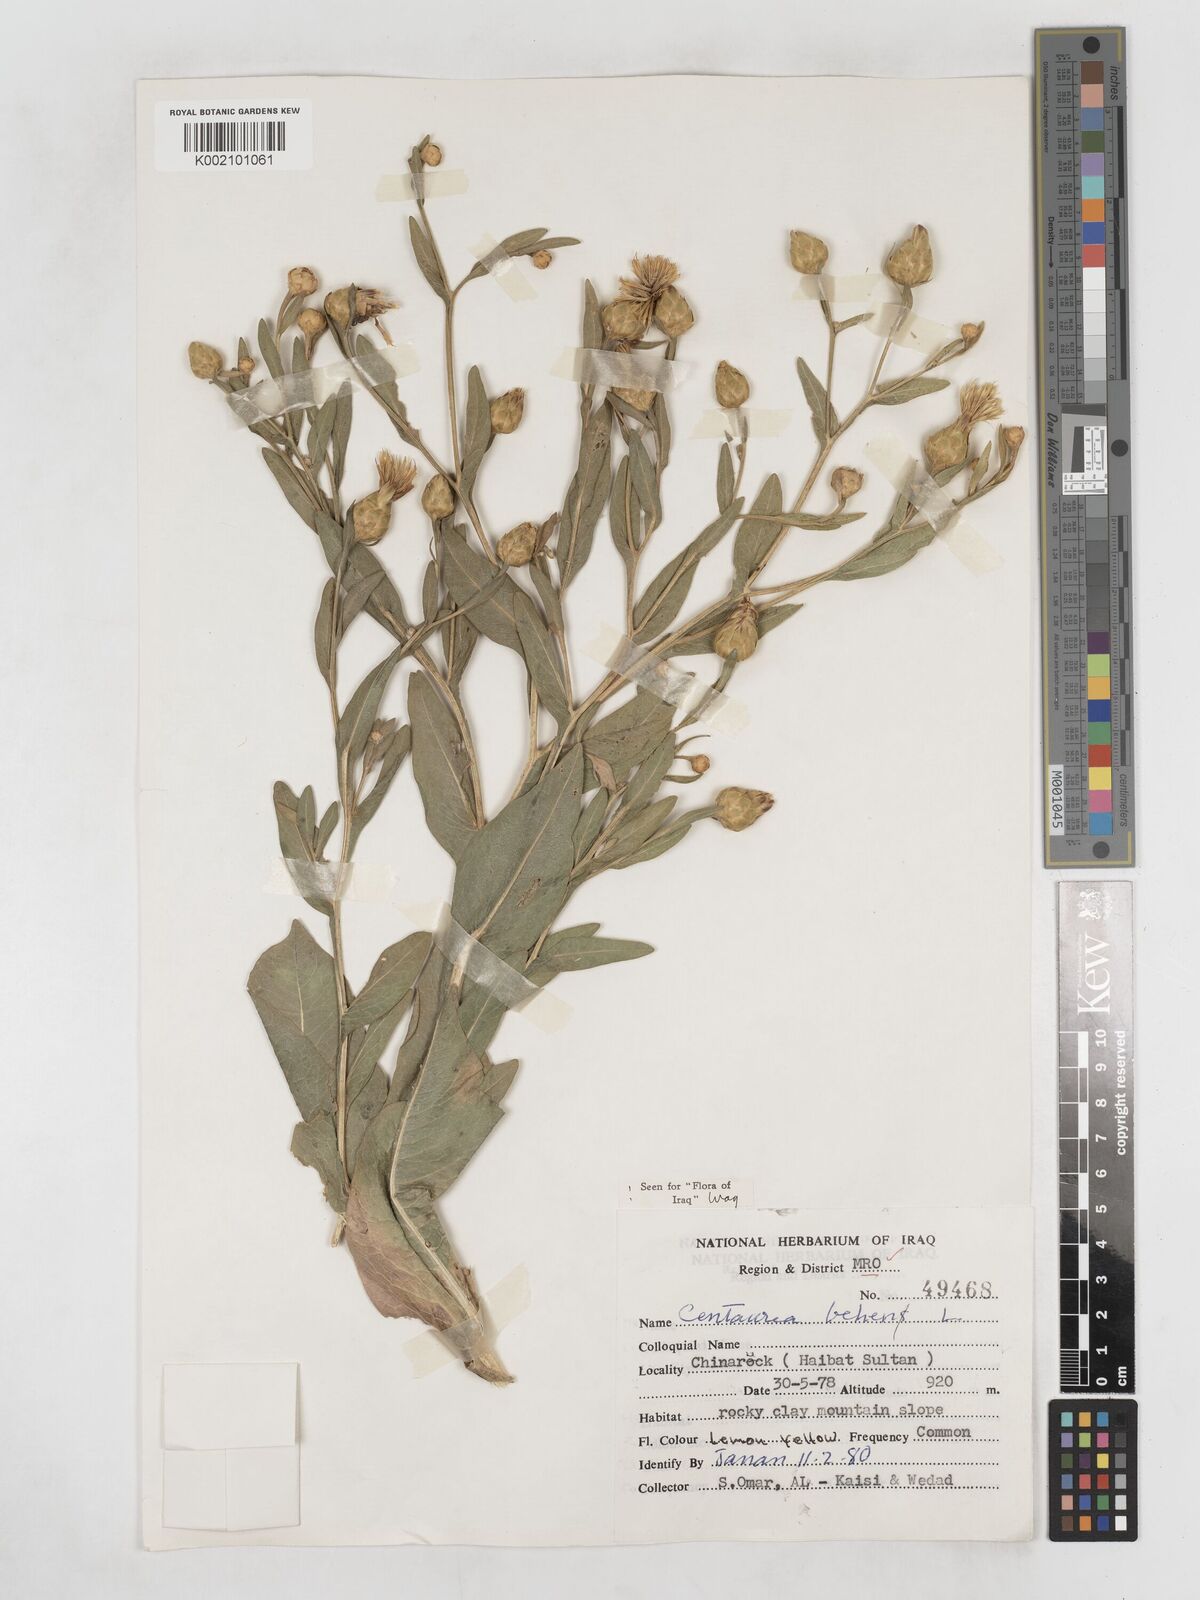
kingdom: Plantae
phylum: Tracheophyta
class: Magnoliopsida
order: Asterales
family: Asteraceae
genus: Centaurea
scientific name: Centaurea behen
